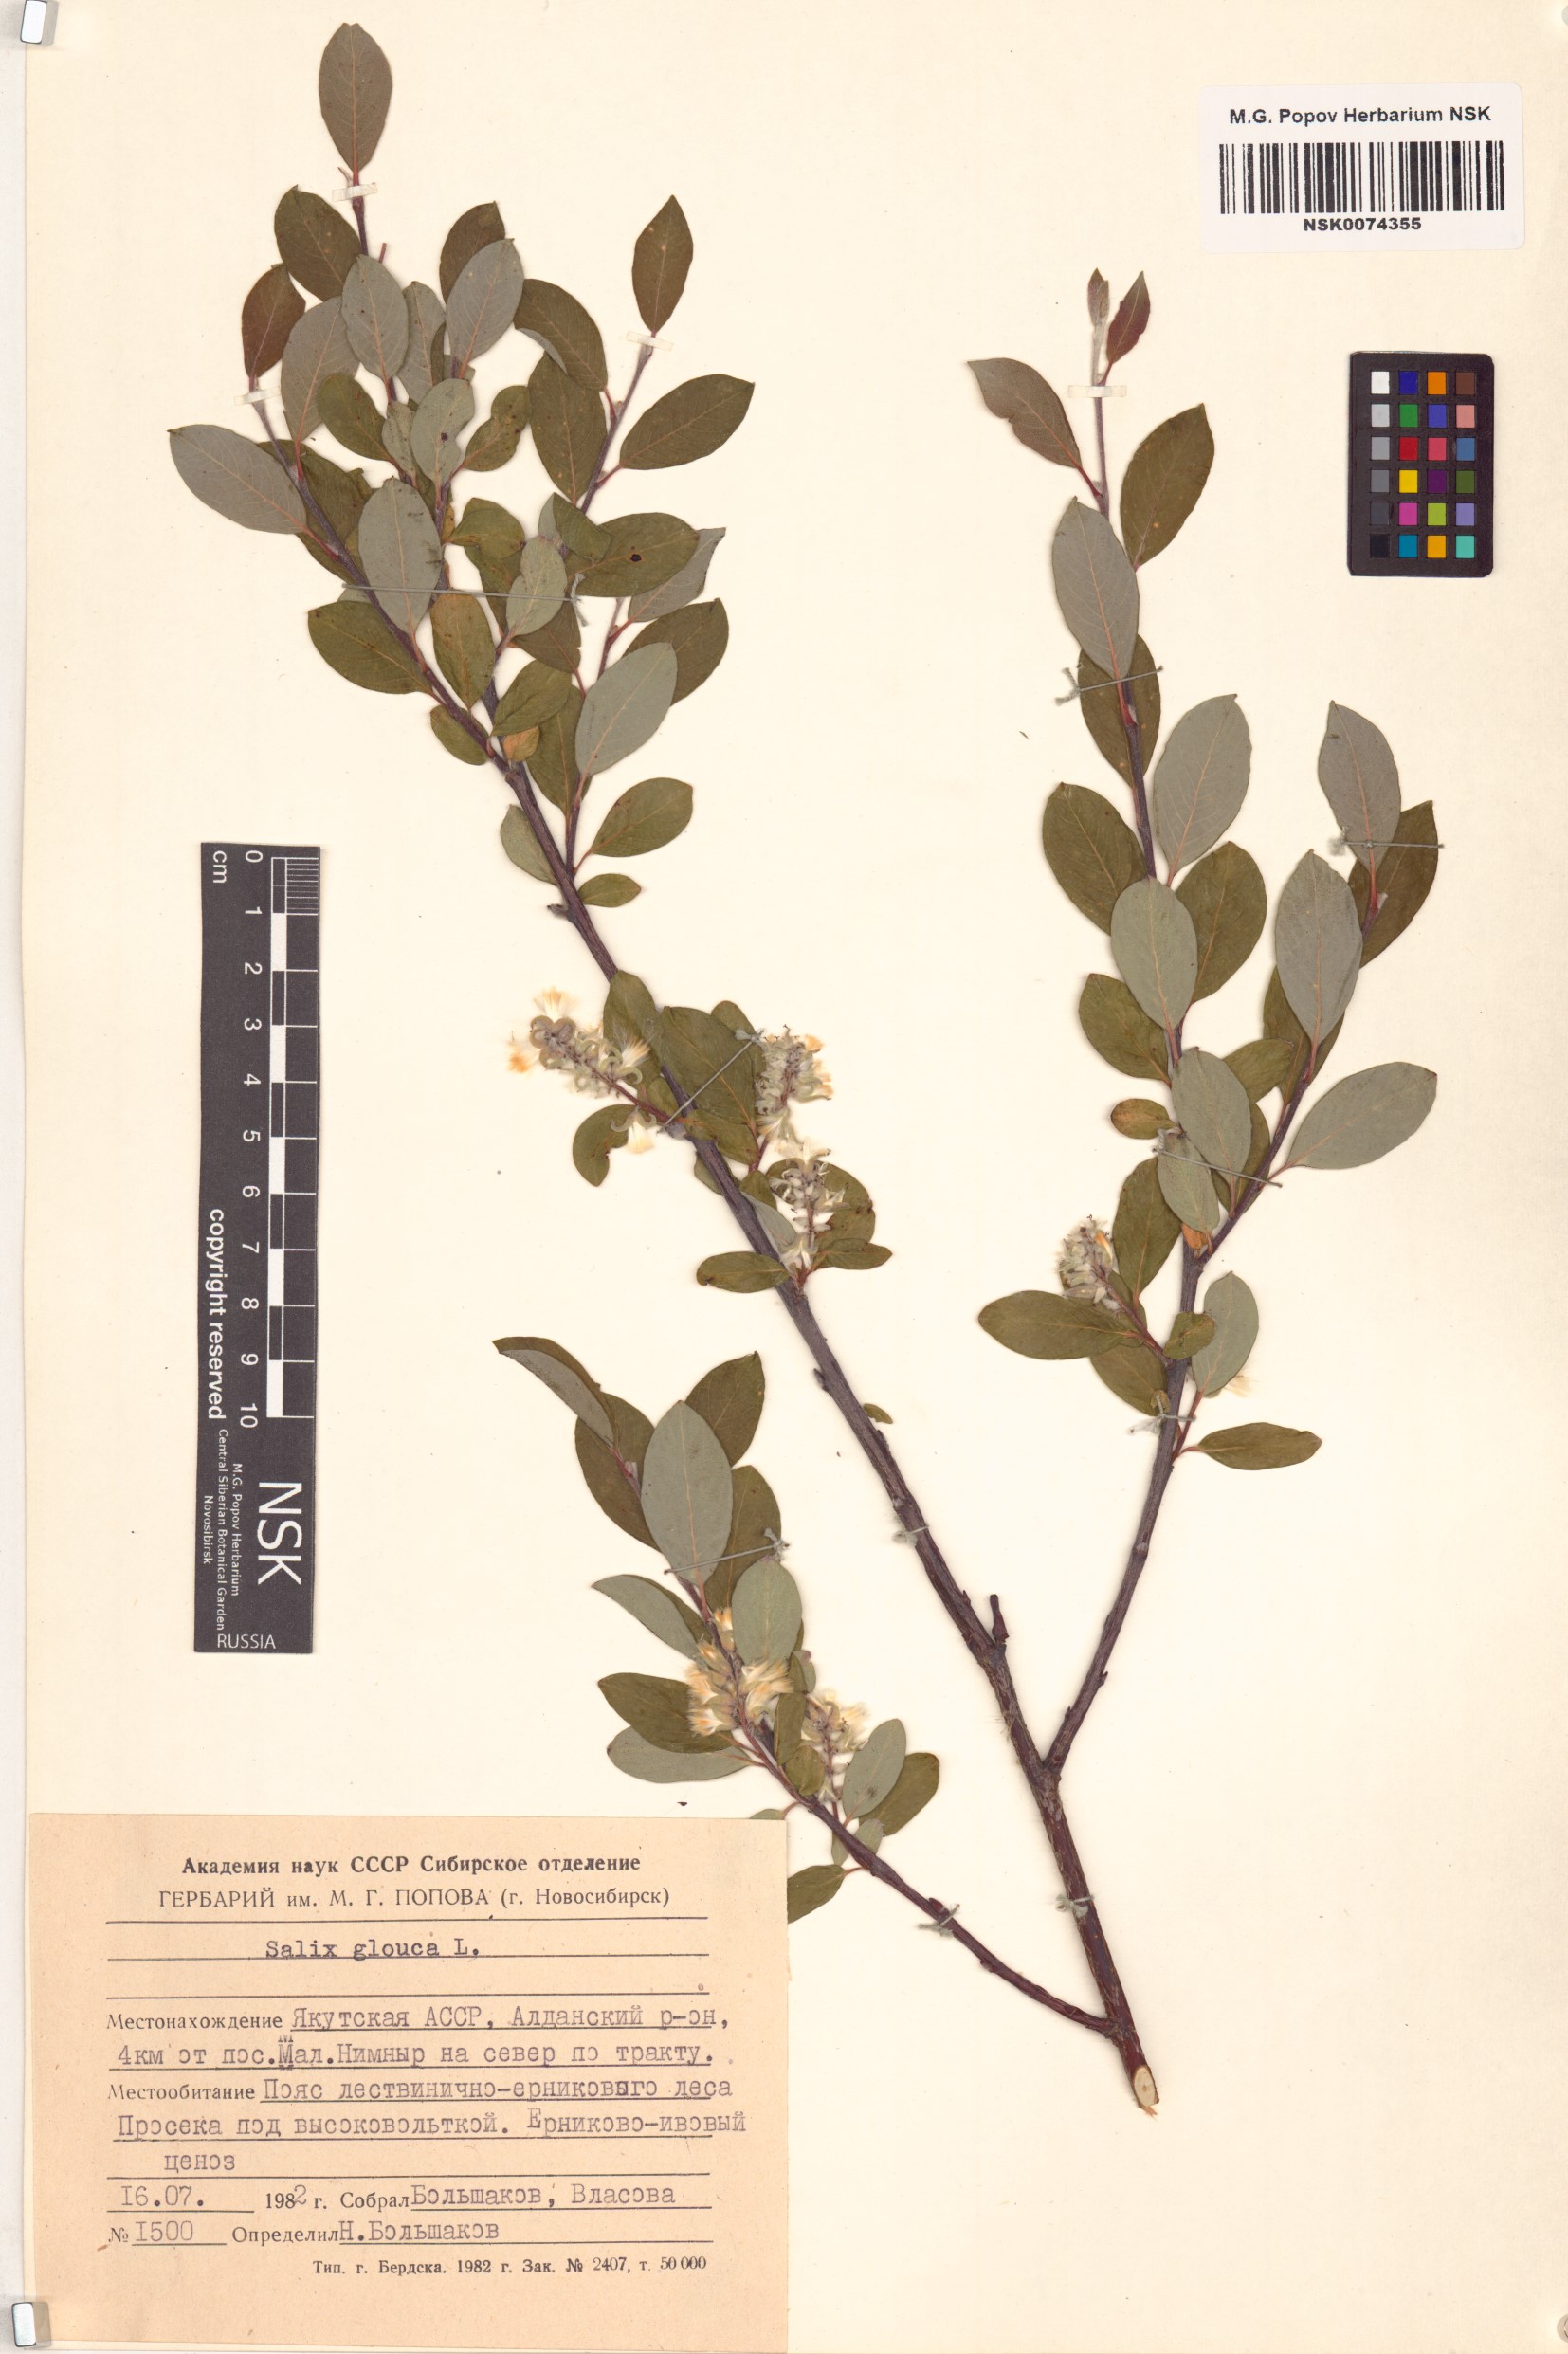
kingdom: Plantae
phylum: Tracheophyta
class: Magnoliopsida
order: Malpighiales
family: Salicaceae
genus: Salix
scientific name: Salix glauca
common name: Glaucous willow
